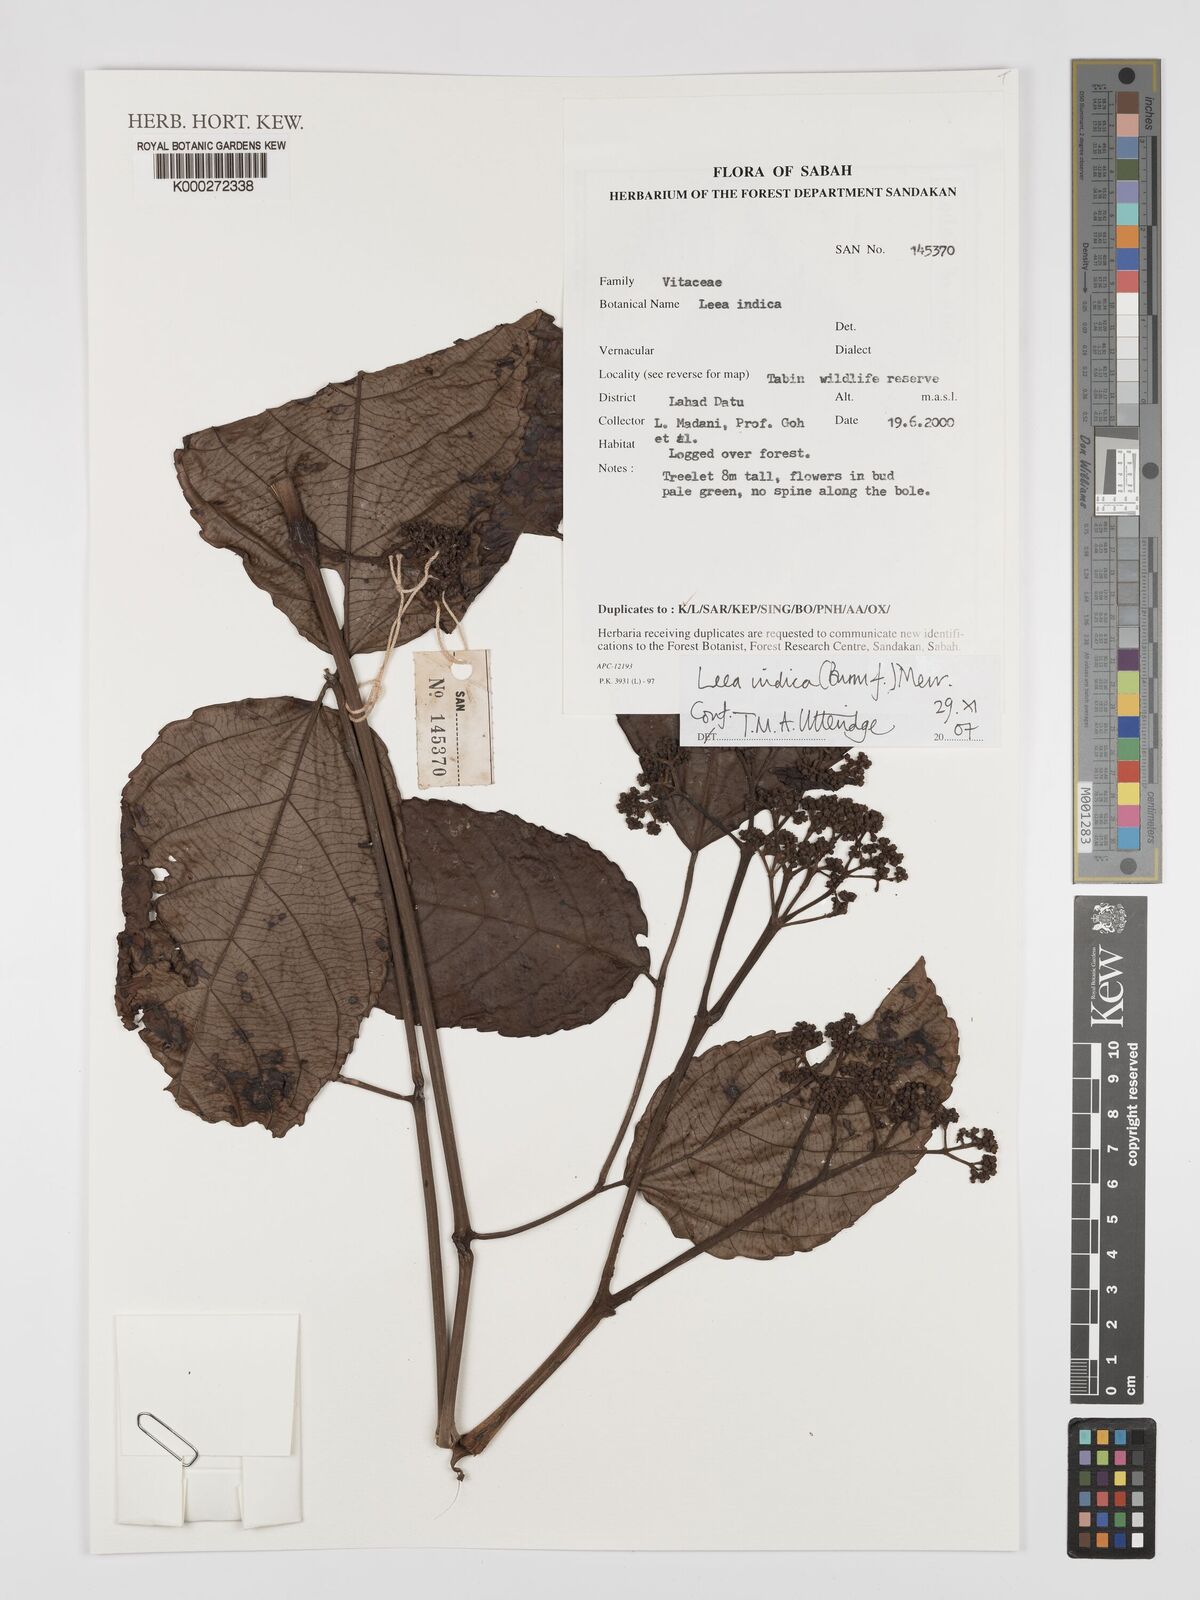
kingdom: Plantae
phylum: Tracheophyta
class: Magnoliopsida
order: Vitales
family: Vitaceae
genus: Leea
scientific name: Leea indica
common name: Bandicoot-berry
